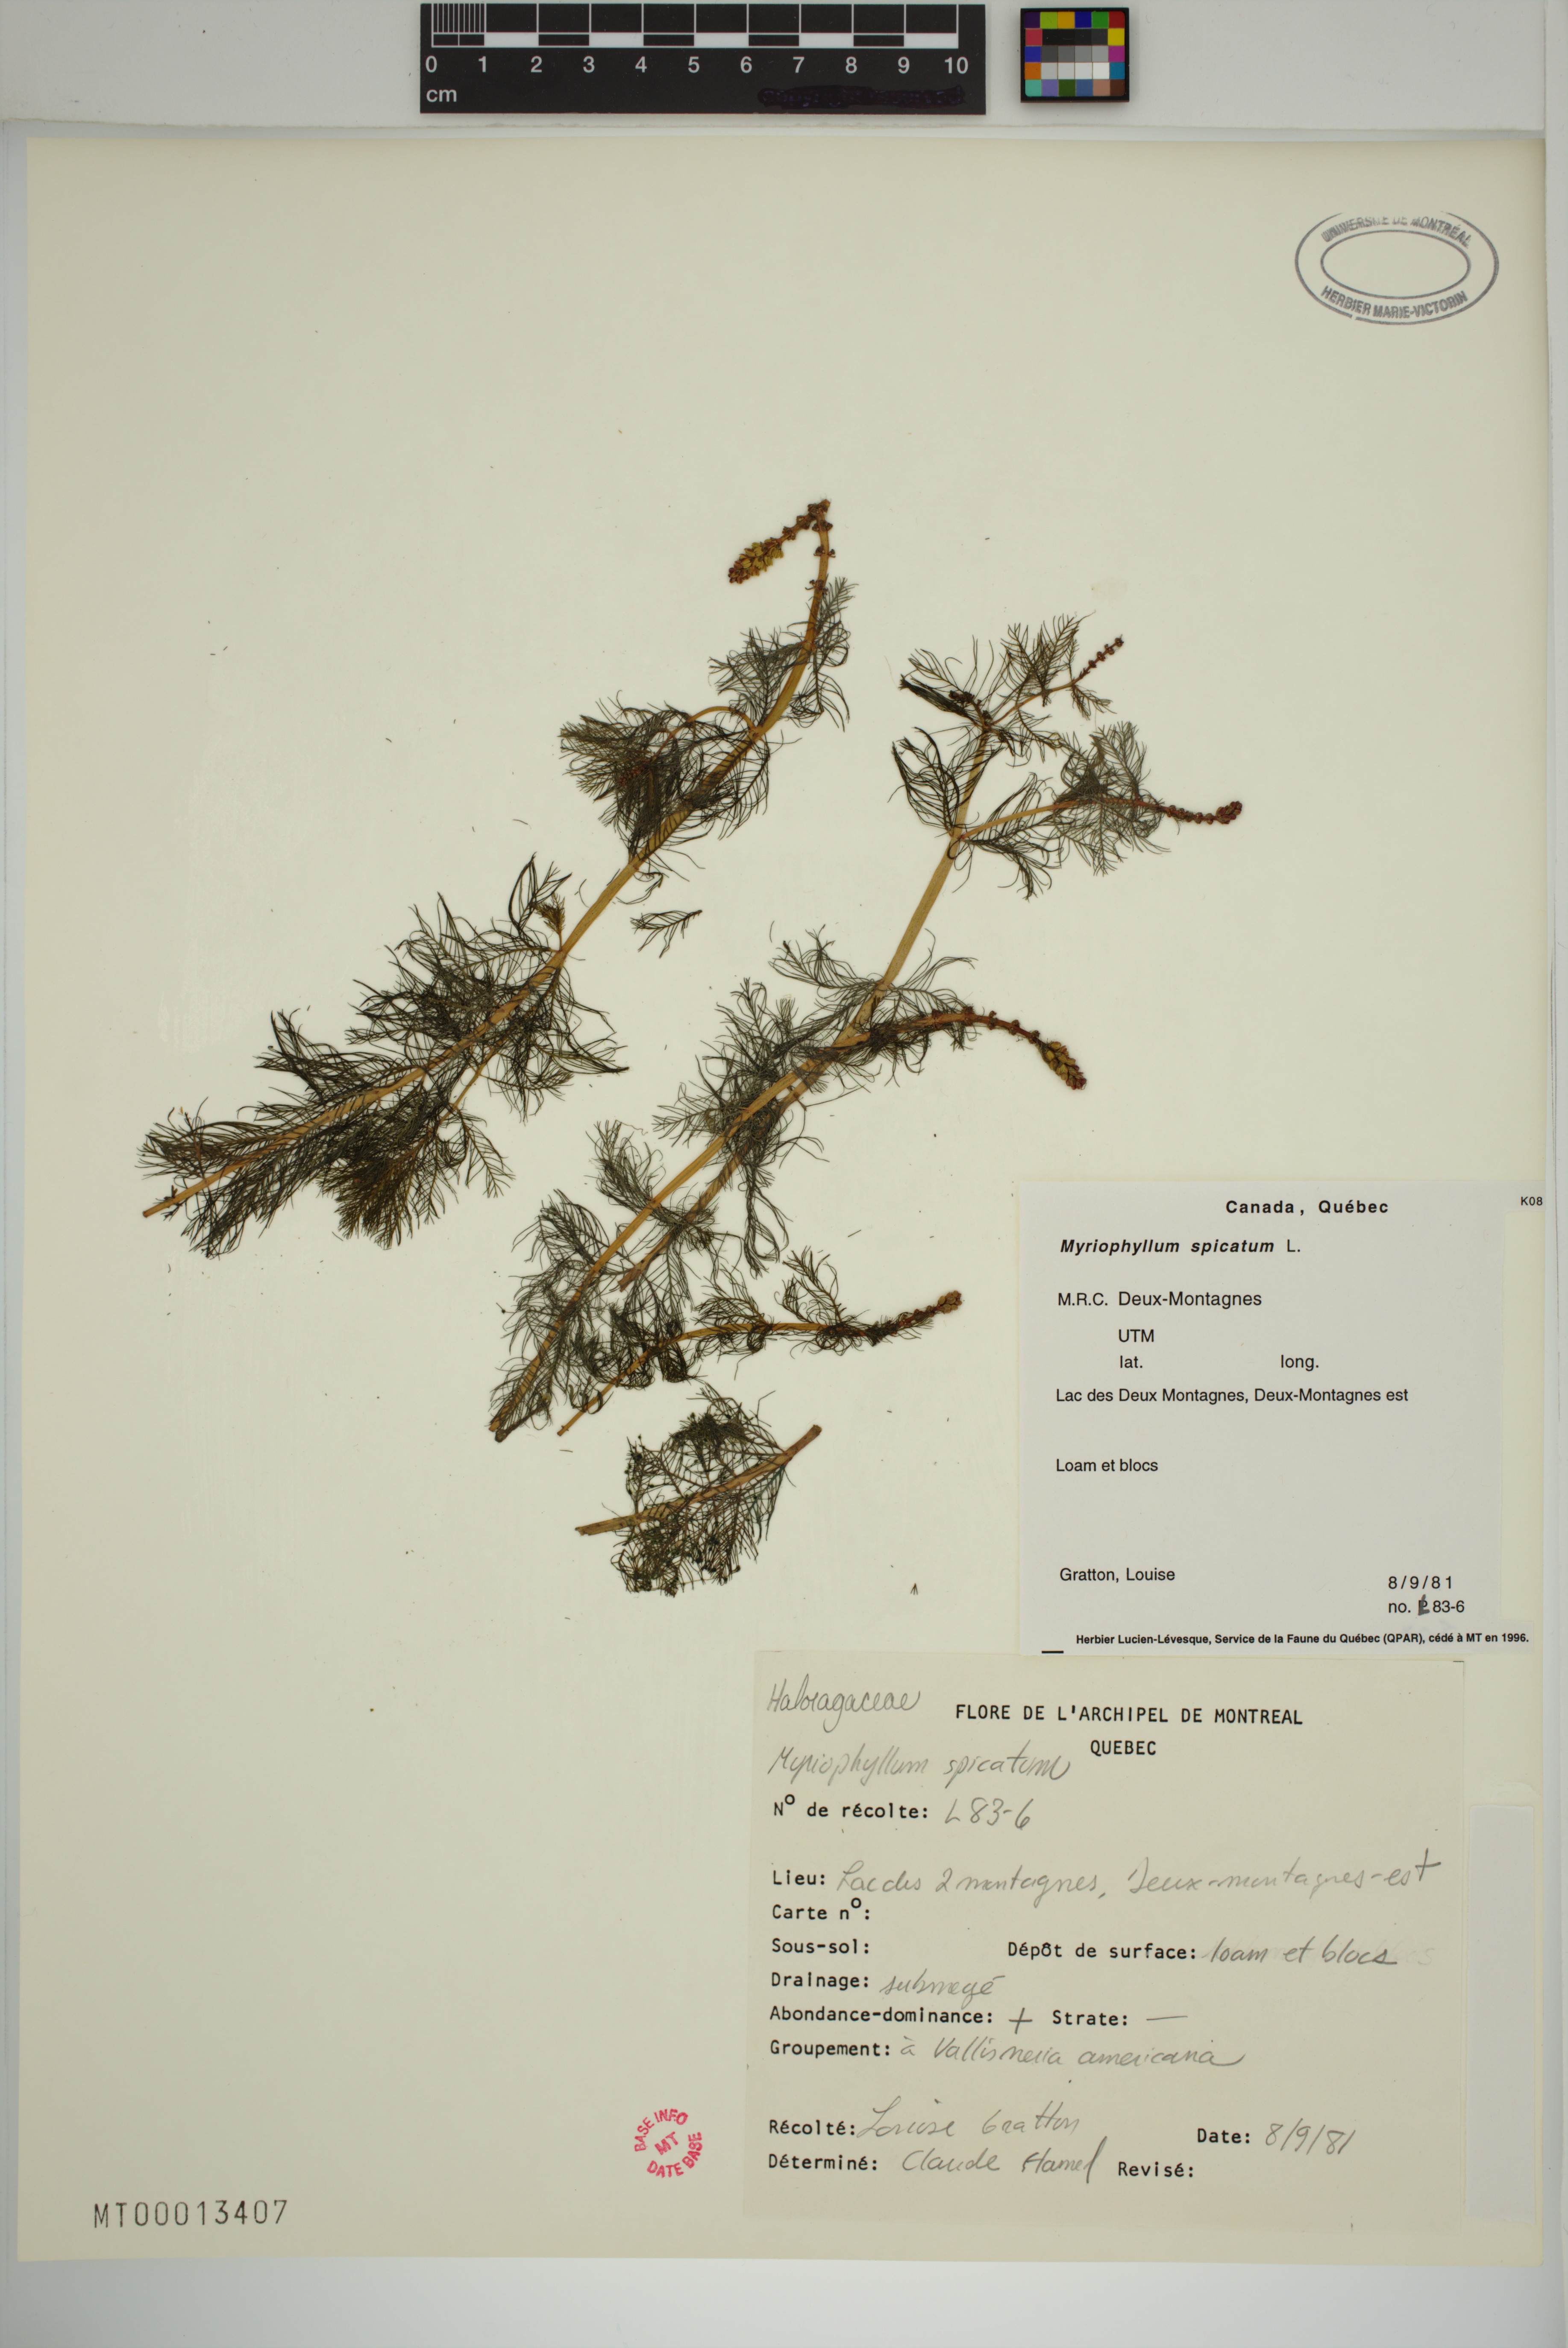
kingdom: Plantae
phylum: Tracheophyta
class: Magnoliopsida
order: Saxifragales
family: Haloragaceae
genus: Myriophyllum
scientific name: Myriophyllum spicatum
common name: Spiked water-milfoil
